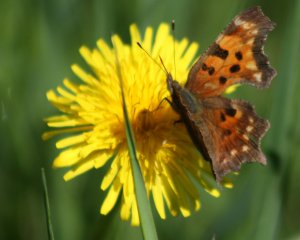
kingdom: Animalia
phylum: Arthropoda
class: Insecta
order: Lepidoptera
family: Nymphalidae
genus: Polygonia
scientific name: Polygonia progne
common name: Gray Comma
